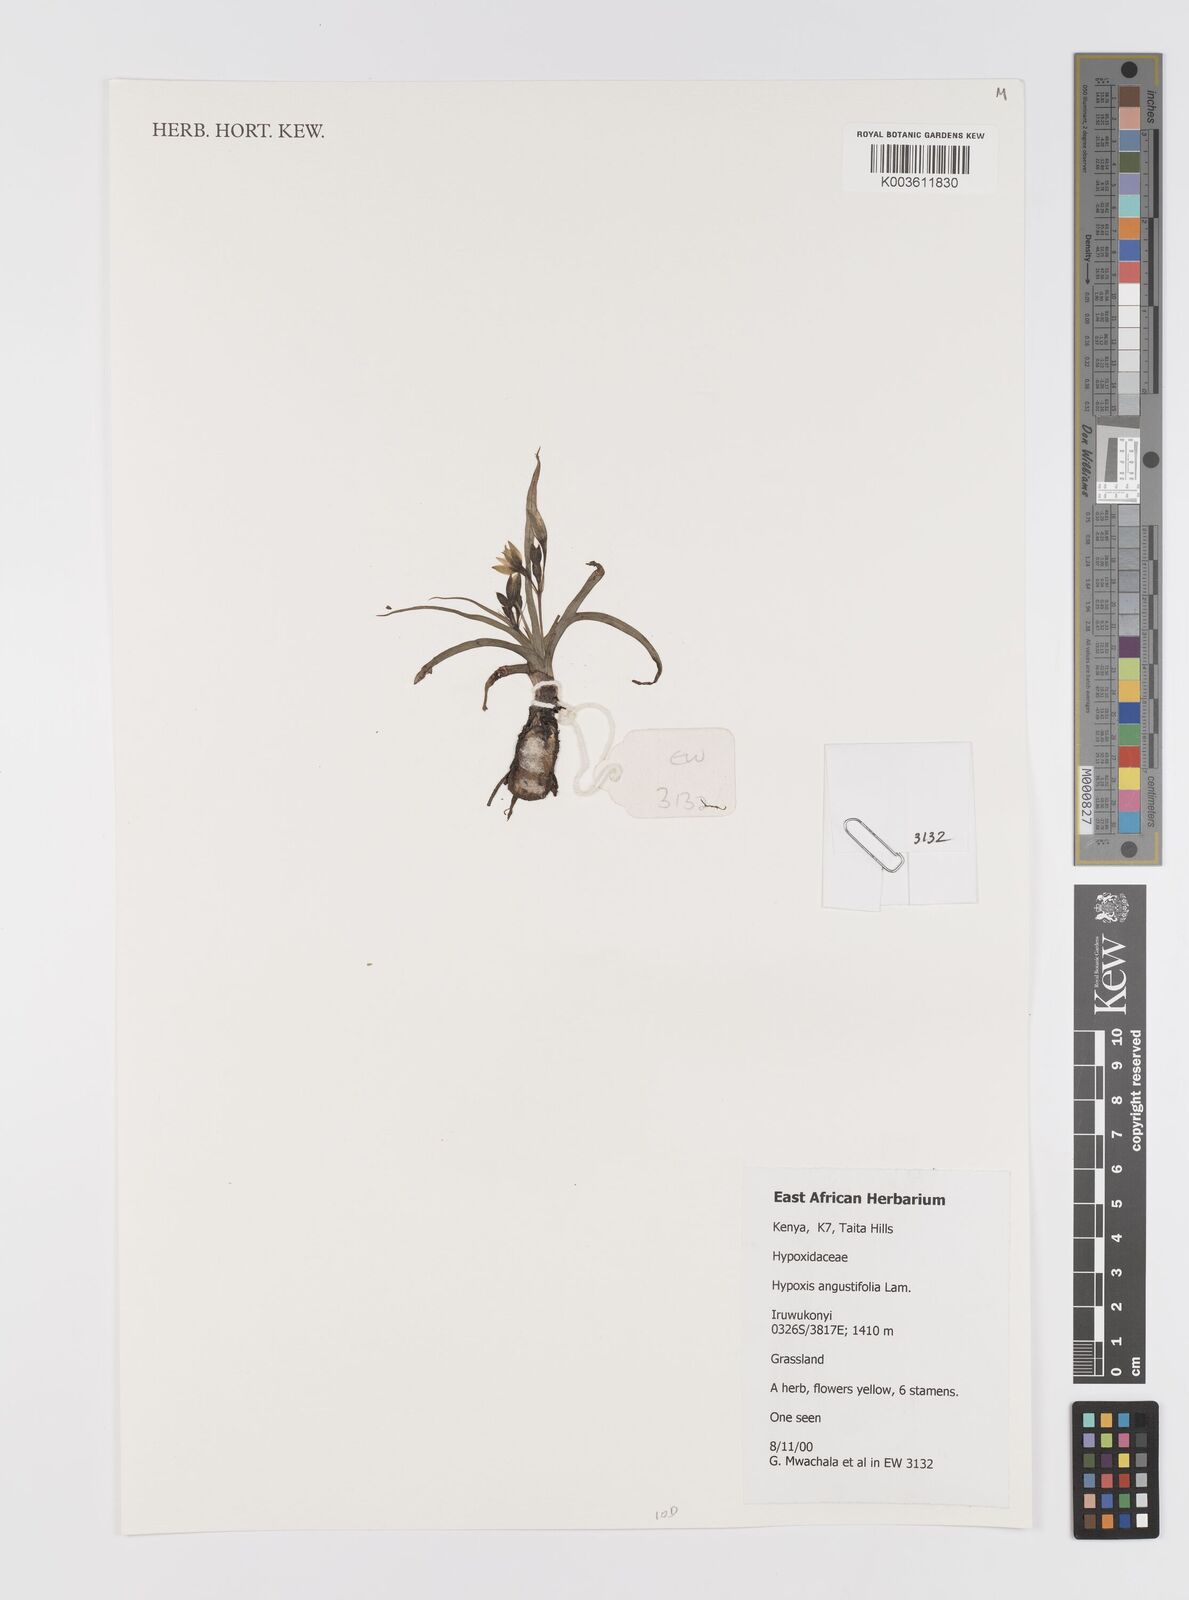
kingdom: Plantae
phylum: Tracheophyta
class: Liliopsida
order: Asparagales
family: Hypoxidaceae
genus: Hypoxis
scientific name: Hypoxis angustifolia
